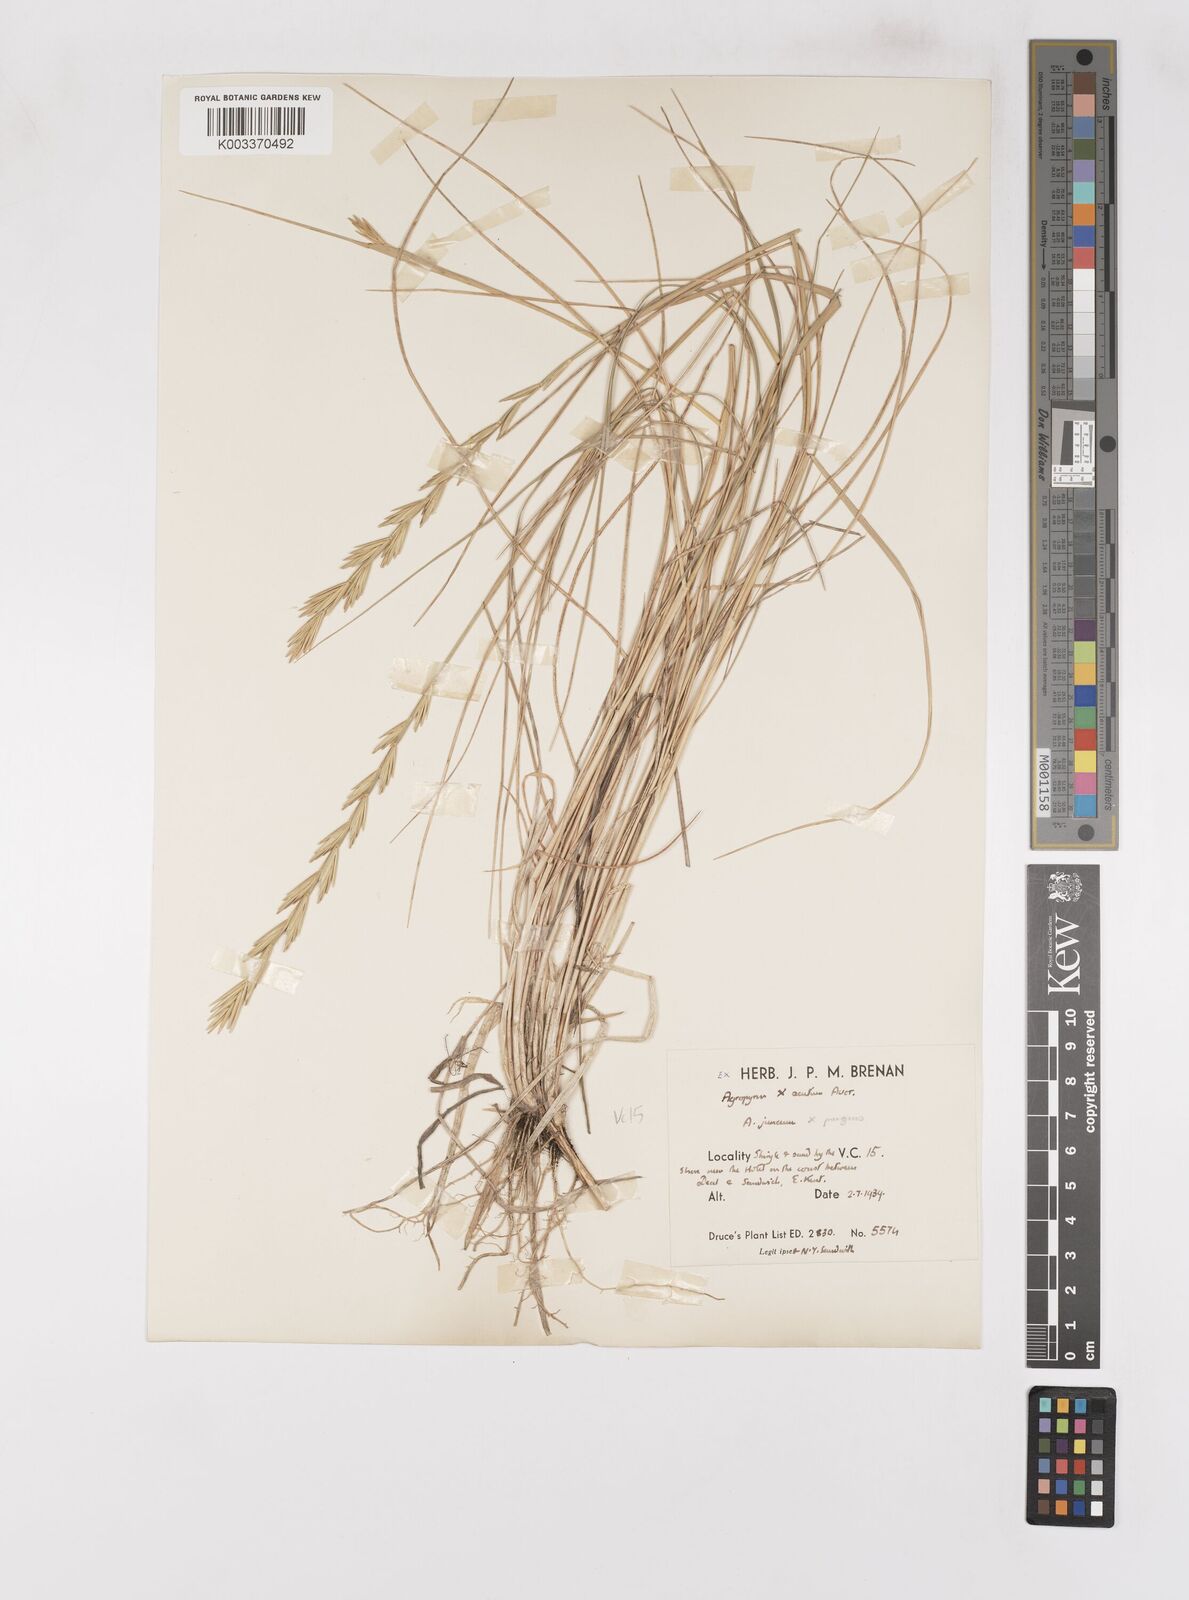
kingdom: Plantae
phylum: Tracheophyta
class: Liliopsida
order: Poales
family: Poaceae
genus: Thinoelymus
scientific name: Thinoelymus obtusiusculus
